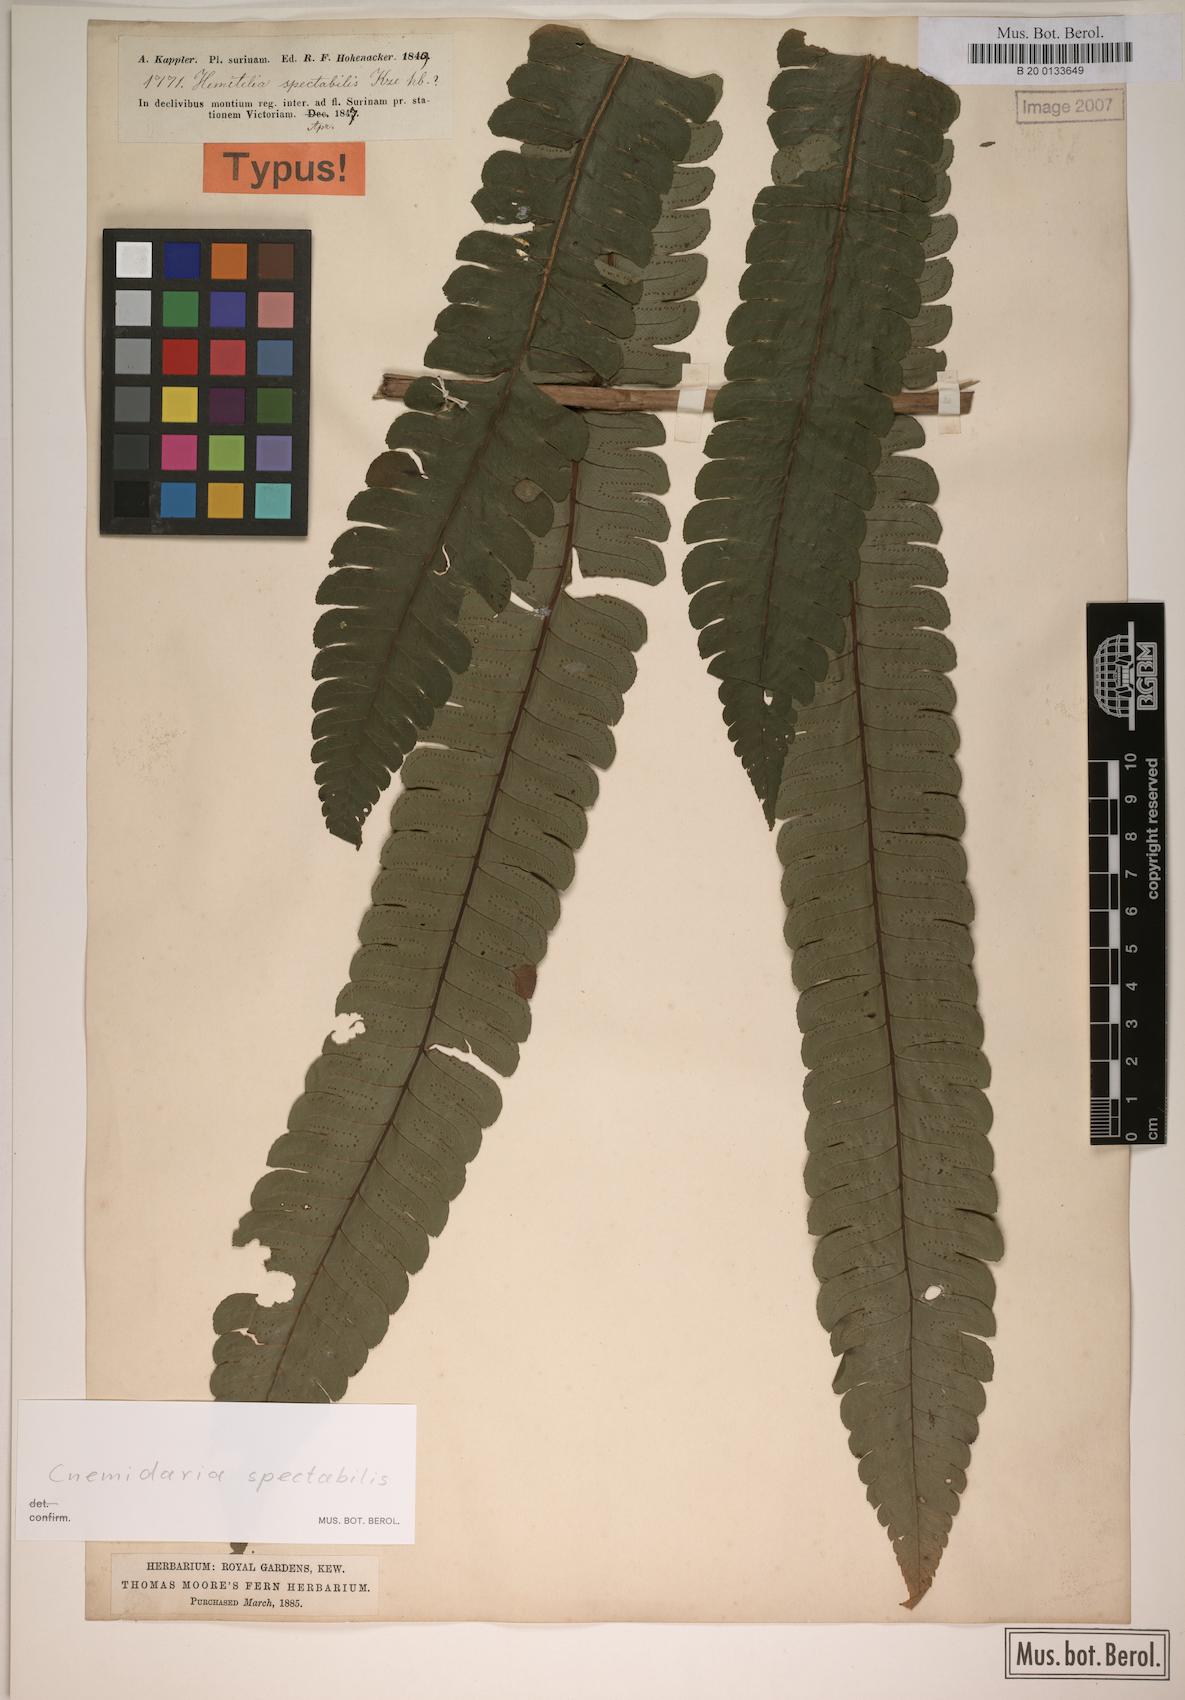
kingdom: Plantae
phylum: Tracheophyta
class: Polypodiopsida
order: Cyatheales
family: Cyatheaceae
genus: Cyathea
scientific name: Cyathea spectabilis
